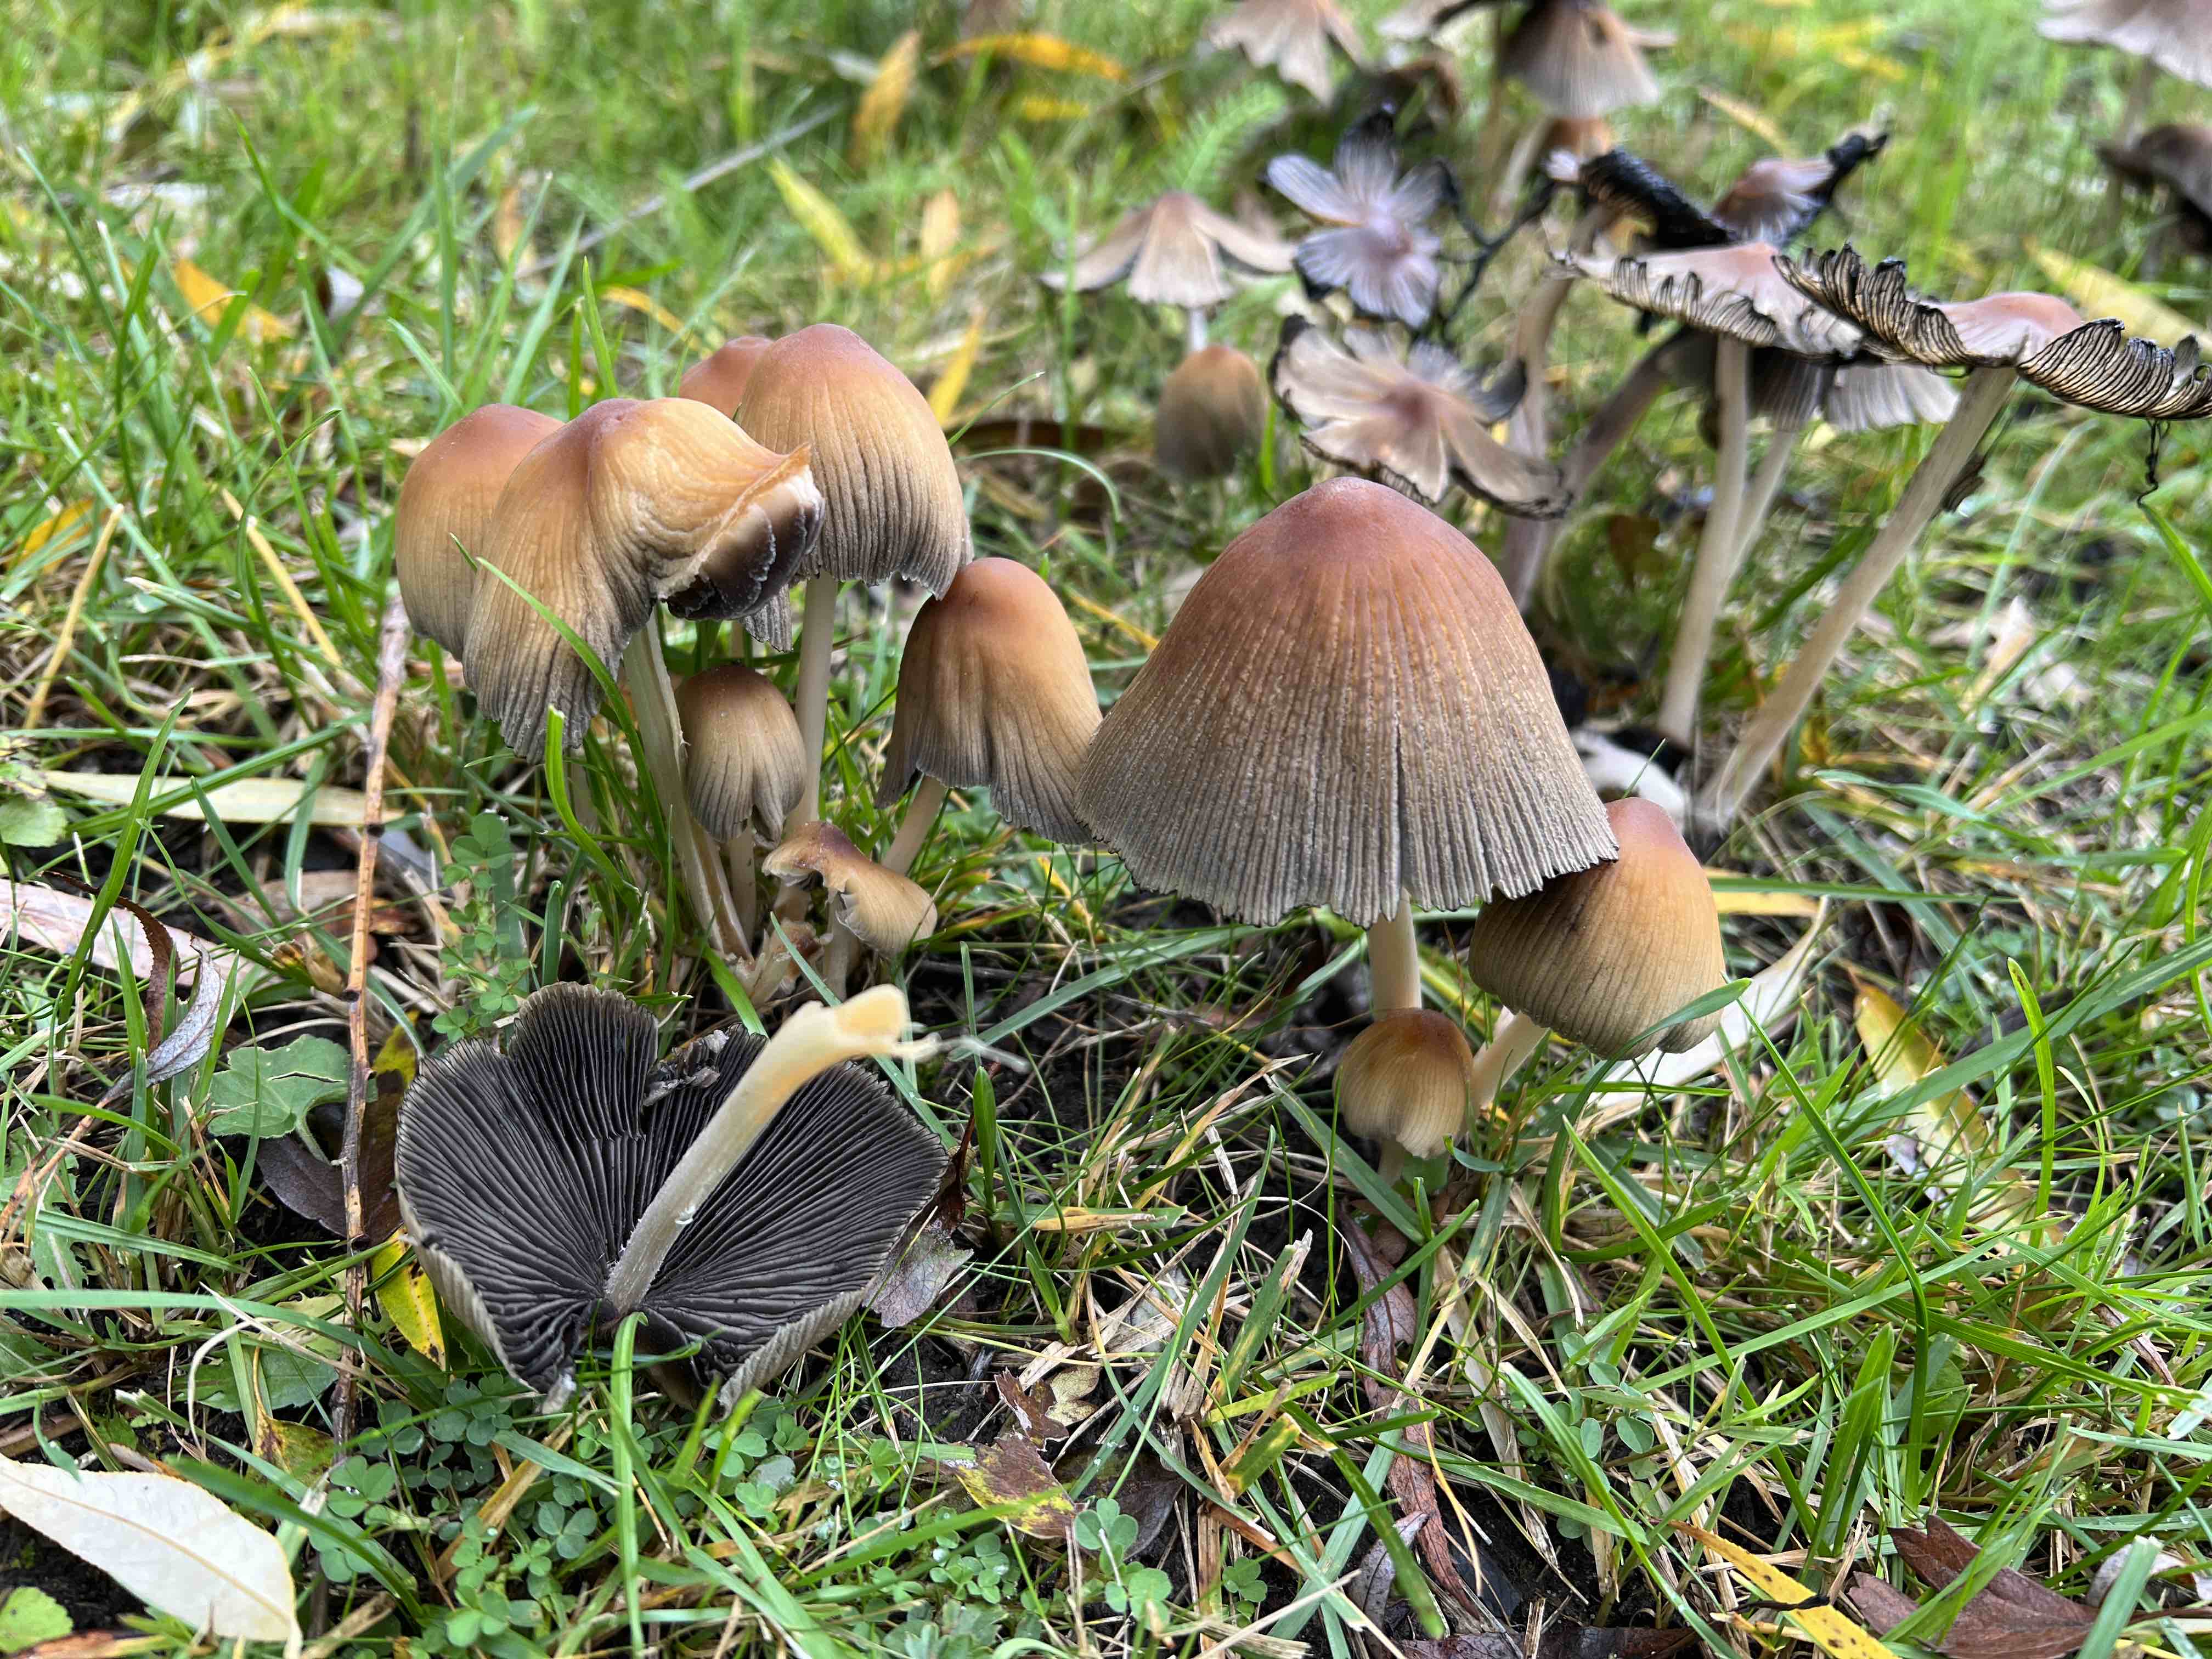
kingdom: Fungi
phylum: Basidiomycota
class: Agaricomycetes
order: Agaricales
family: Psathyrellaceae
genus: Coprinellus
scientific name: Coprinellus micaceus
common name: glimmer-blækhat
